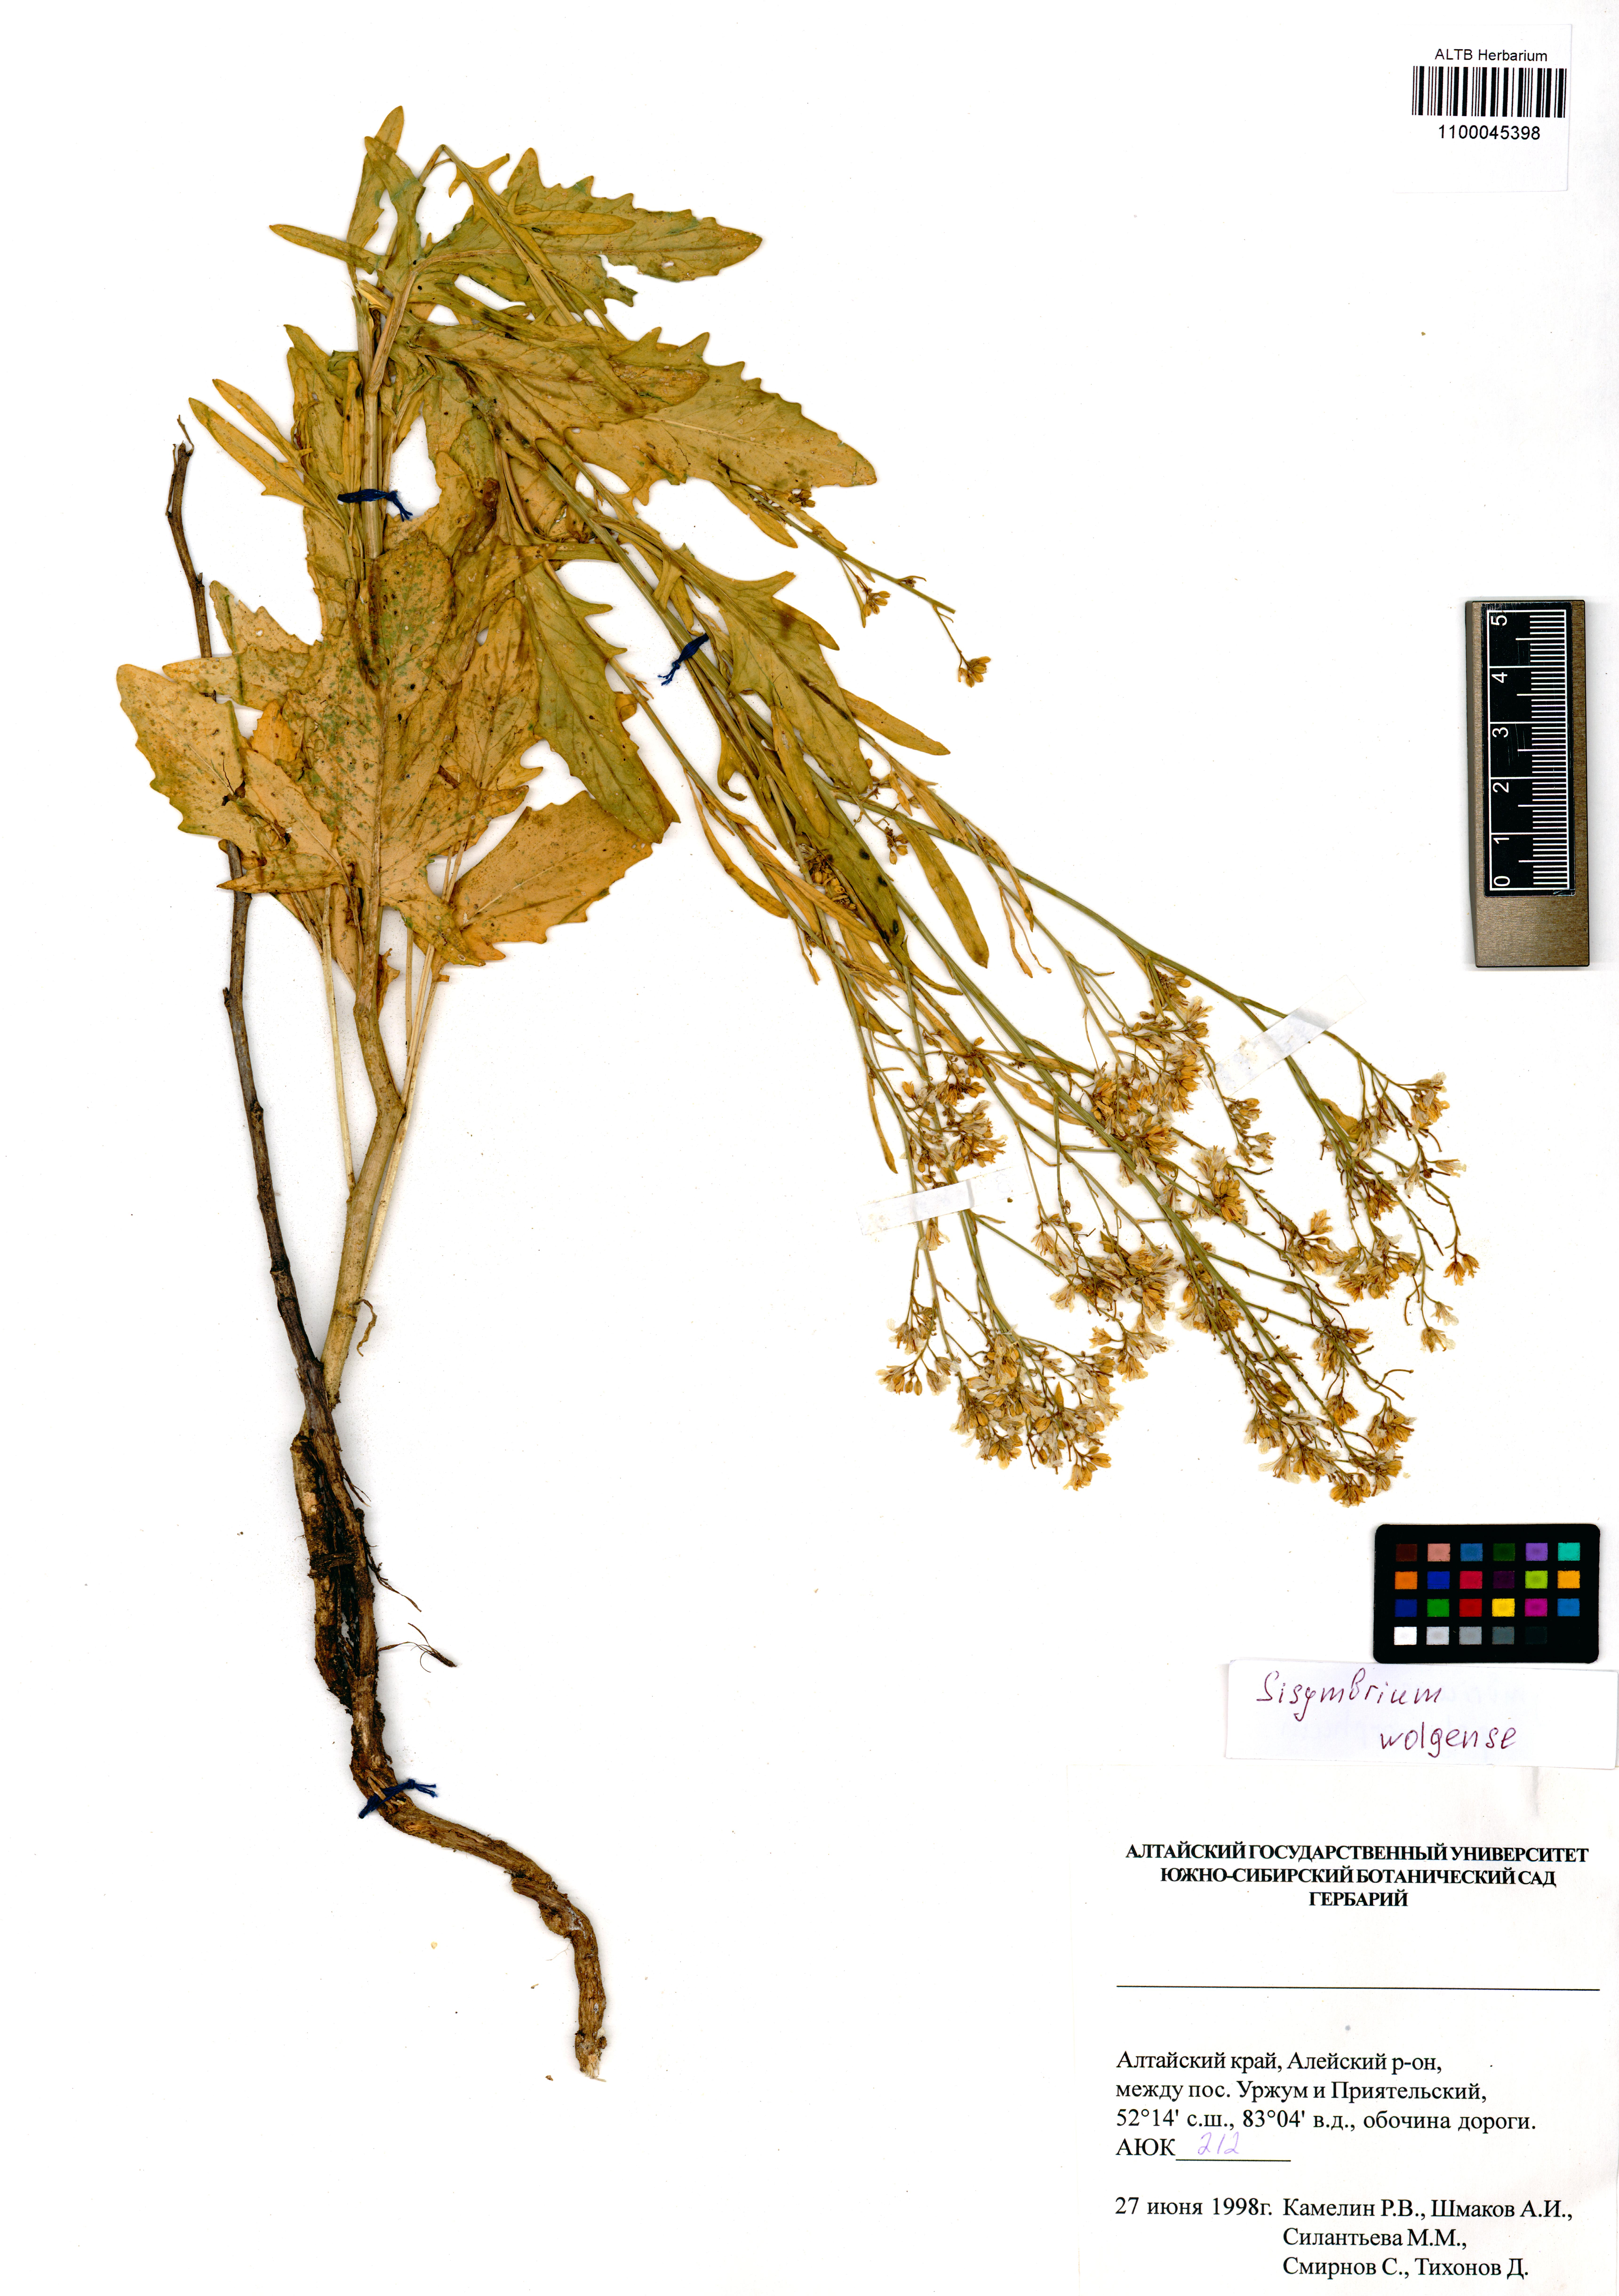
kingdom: Plantae
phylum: Tracheophyta
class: Magnoliopsida
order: Brassicales
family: Brassicaceae
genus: Sisymbrium
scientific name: Sisymbrium volgense
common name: Russian mustard
